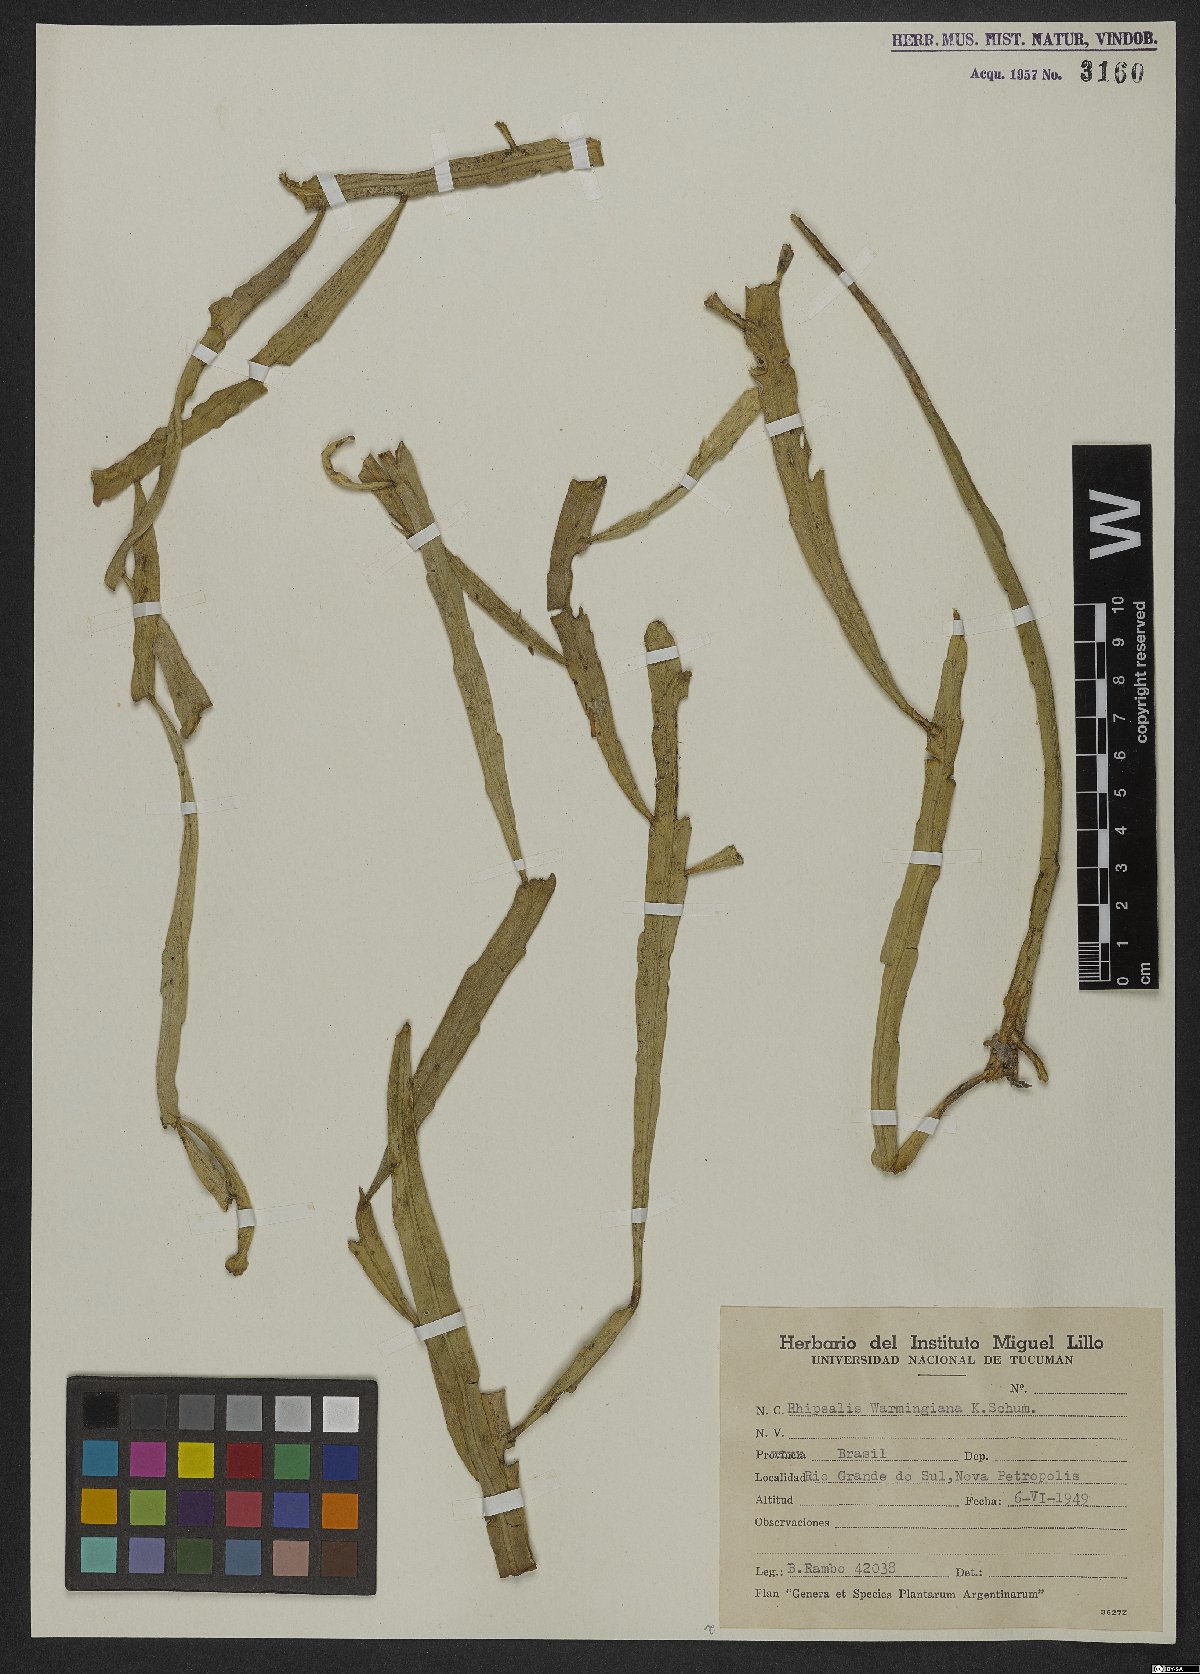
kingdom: Plantae
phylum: Tracheophyta
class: Magnoliopsida
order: Caryophyllales
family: Cactaceae
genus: Lepismium
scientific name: Lepismium warmingianum
